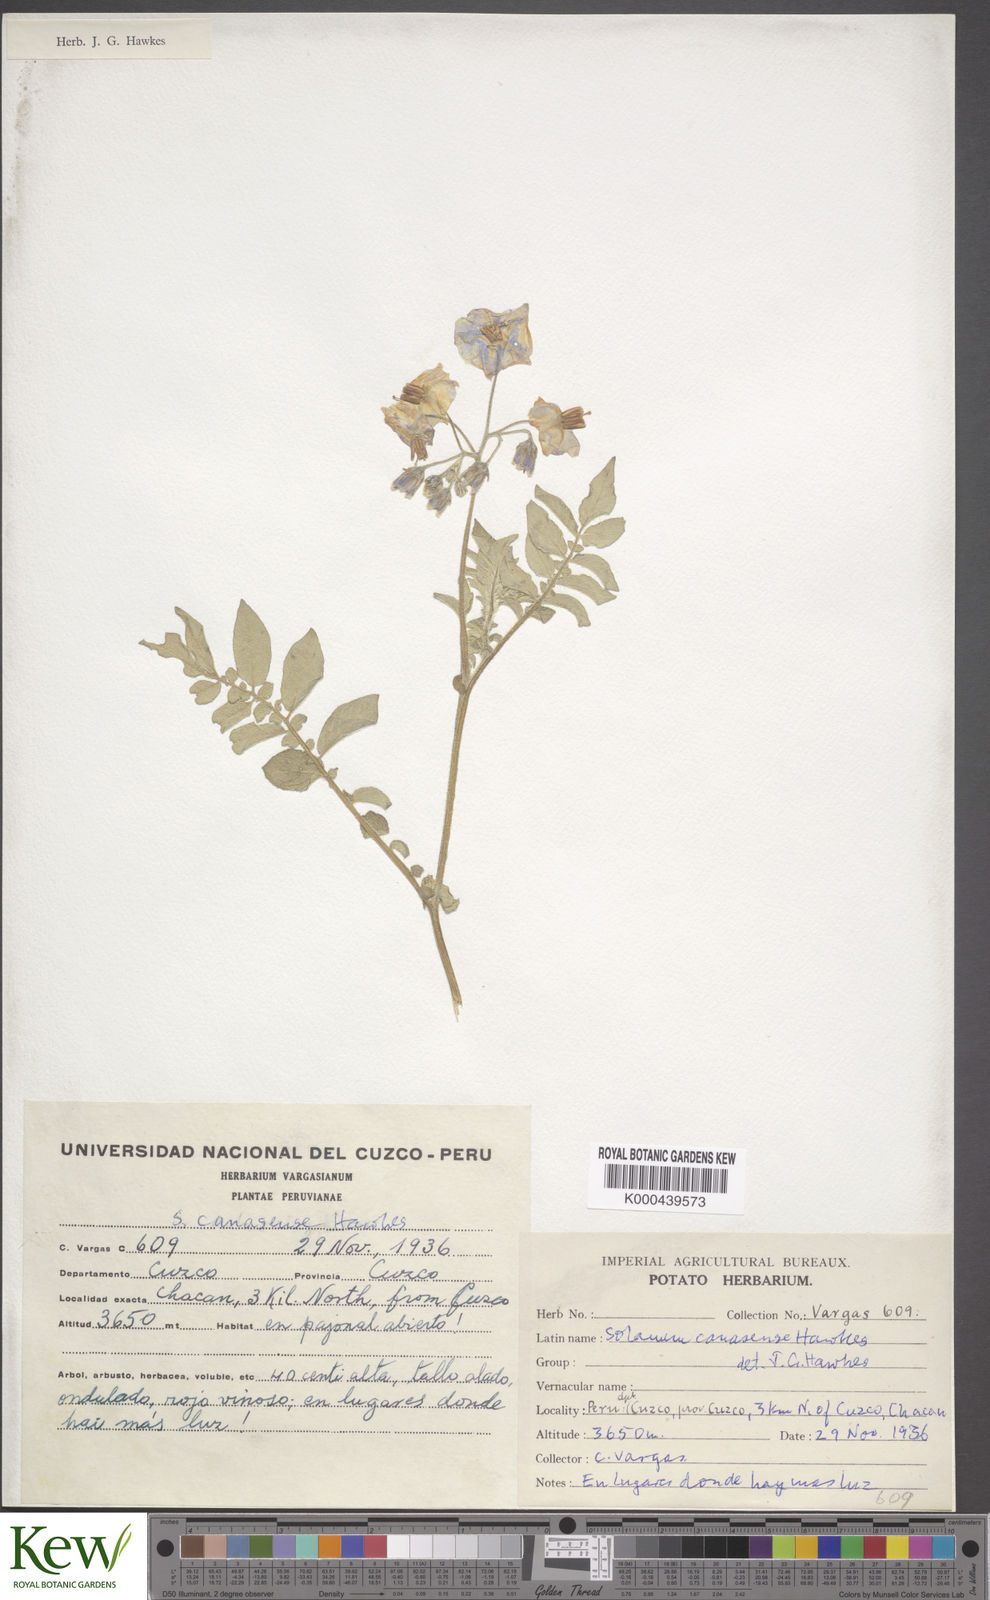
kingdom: Plantae
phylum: Tracheophyta
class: Magnoliopsida
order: Solanales
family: Solanaceae
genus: Solanum
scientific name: Solanum candolleanum
